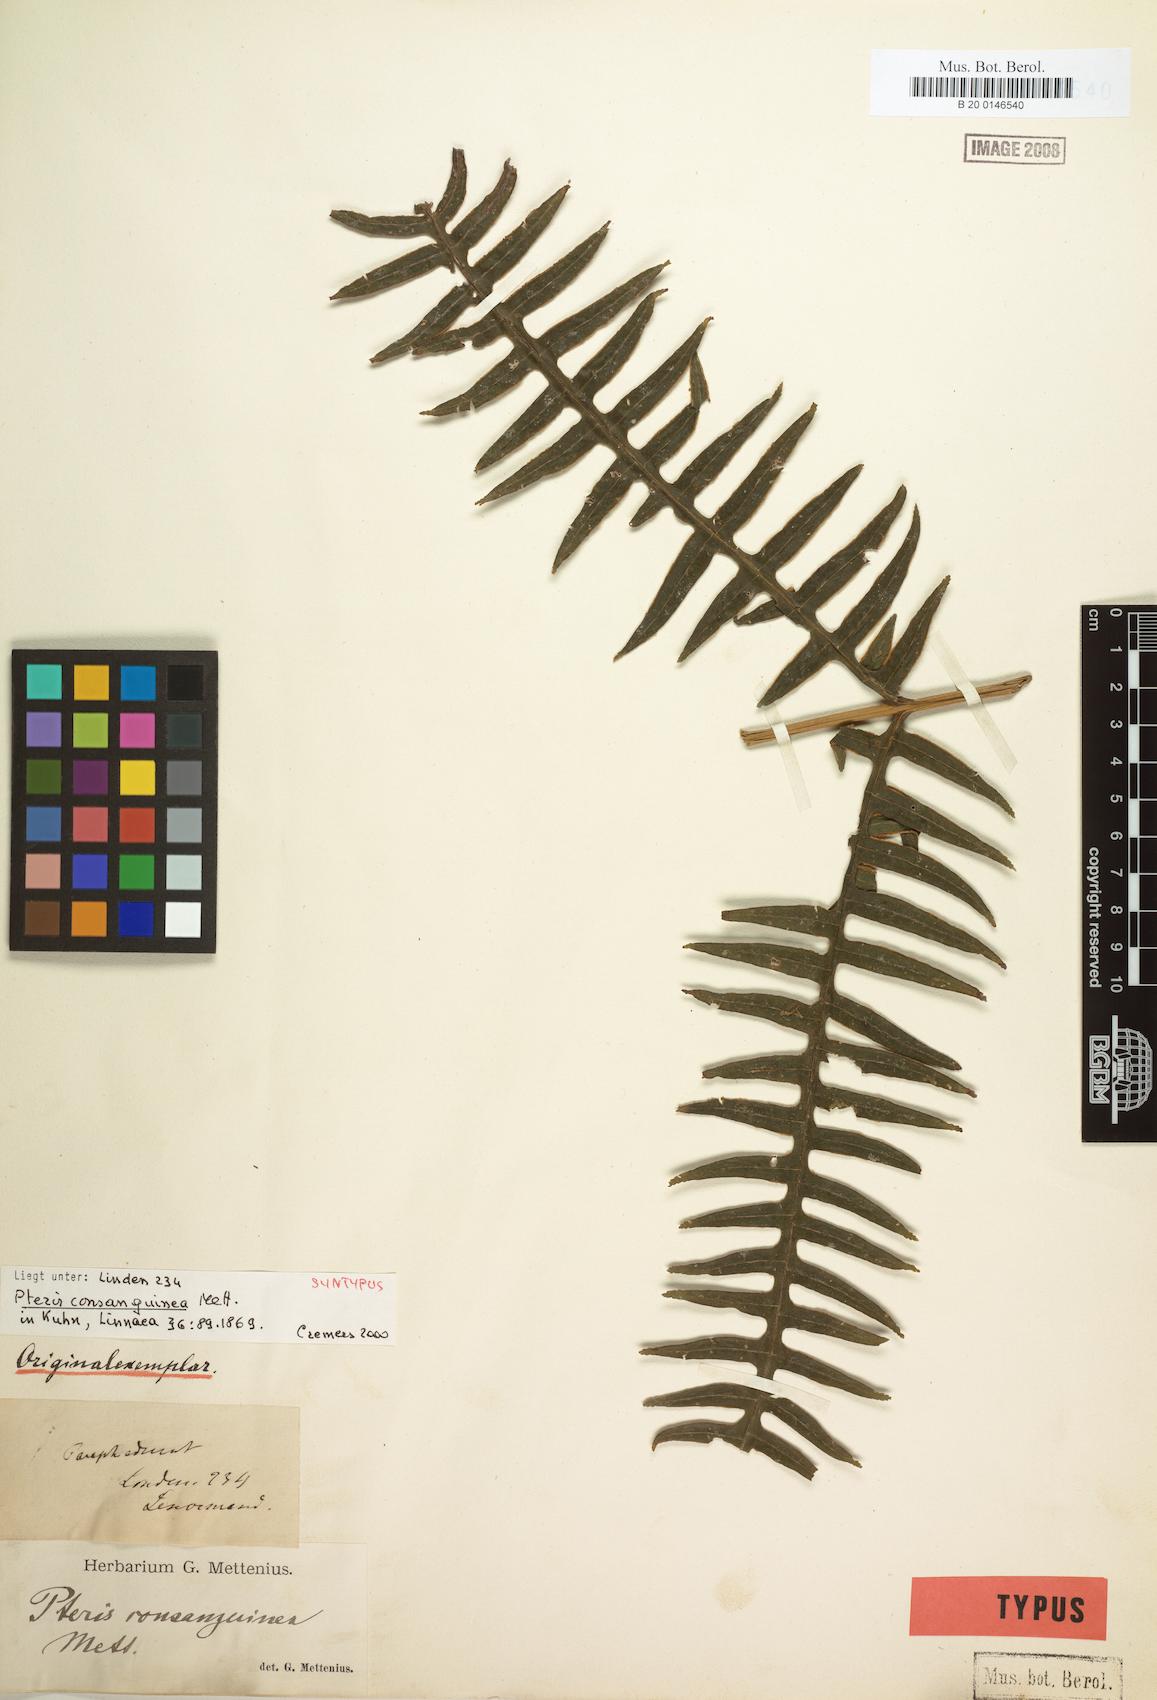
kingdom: Plantae
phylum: Tracheophyta
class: Polypodiopsida
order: Polypodiales
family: Pteridaceae
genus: Pteris
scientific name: Pteris consanguinea
